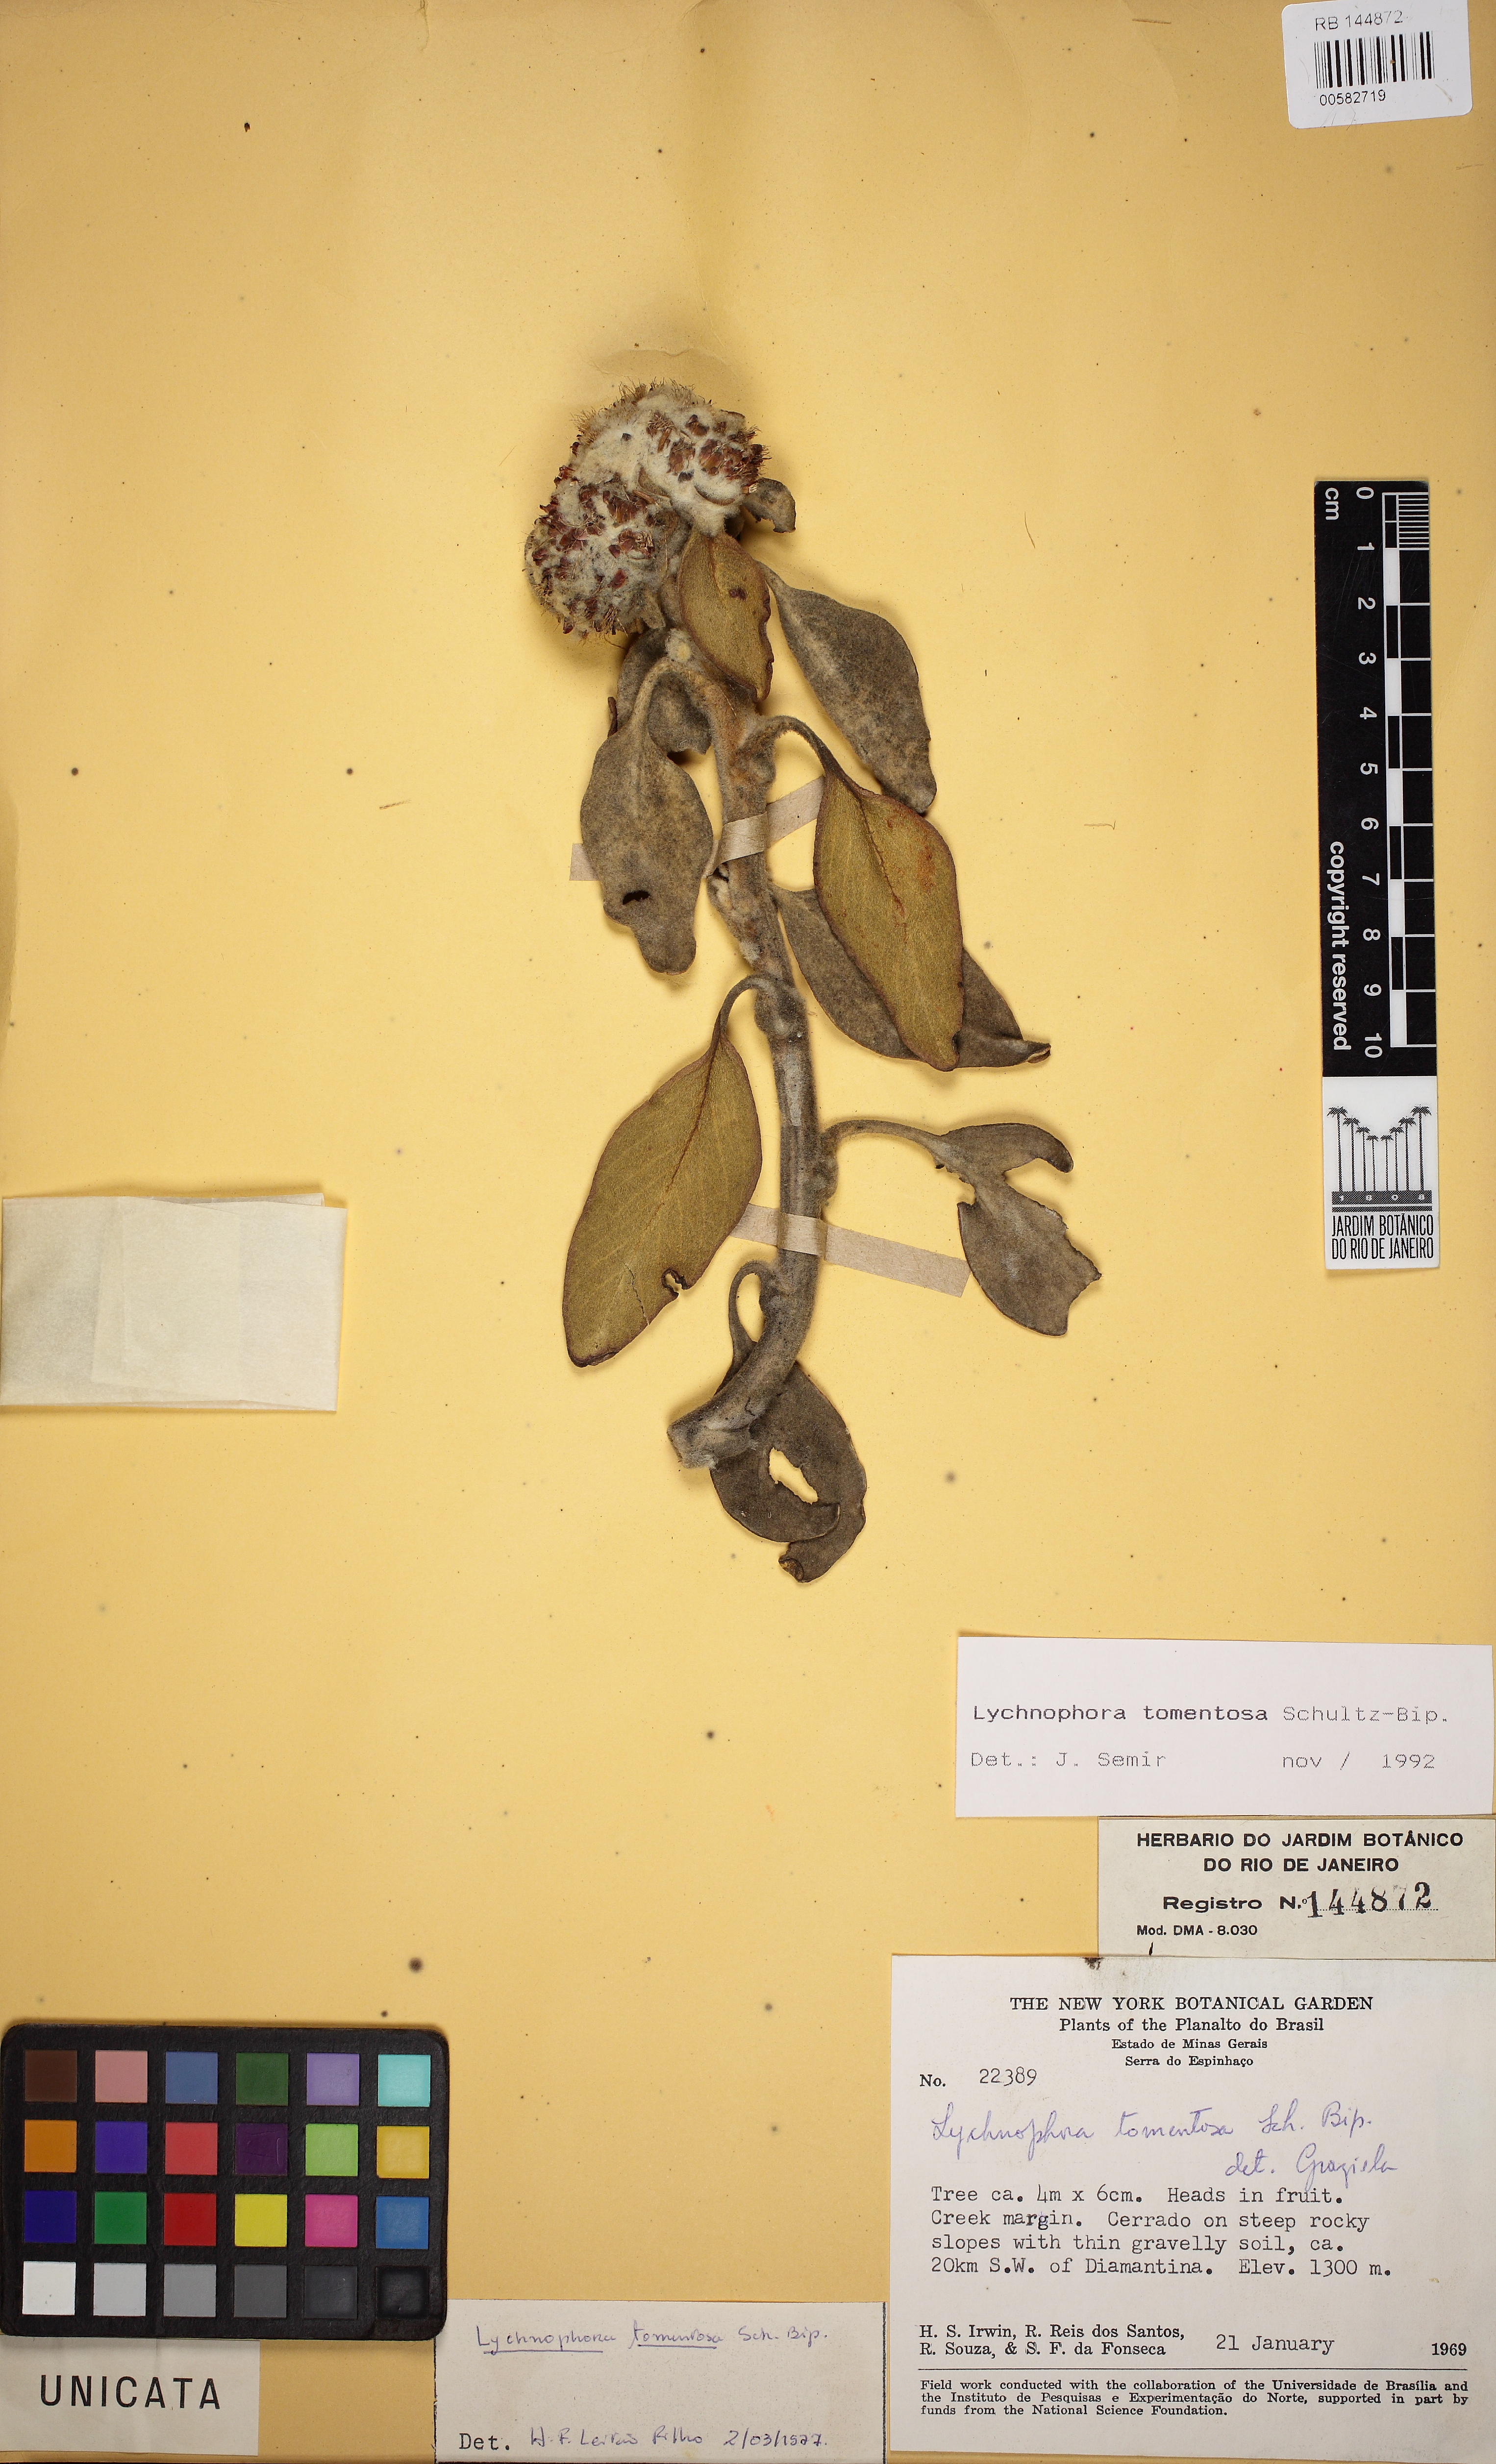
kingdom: Plantae
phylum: Tracheophyta
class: Magnoliopsida
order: Asterales
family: Asteraceae
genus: Lychnocephalus
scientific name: Lychnocephalus tomentosus
